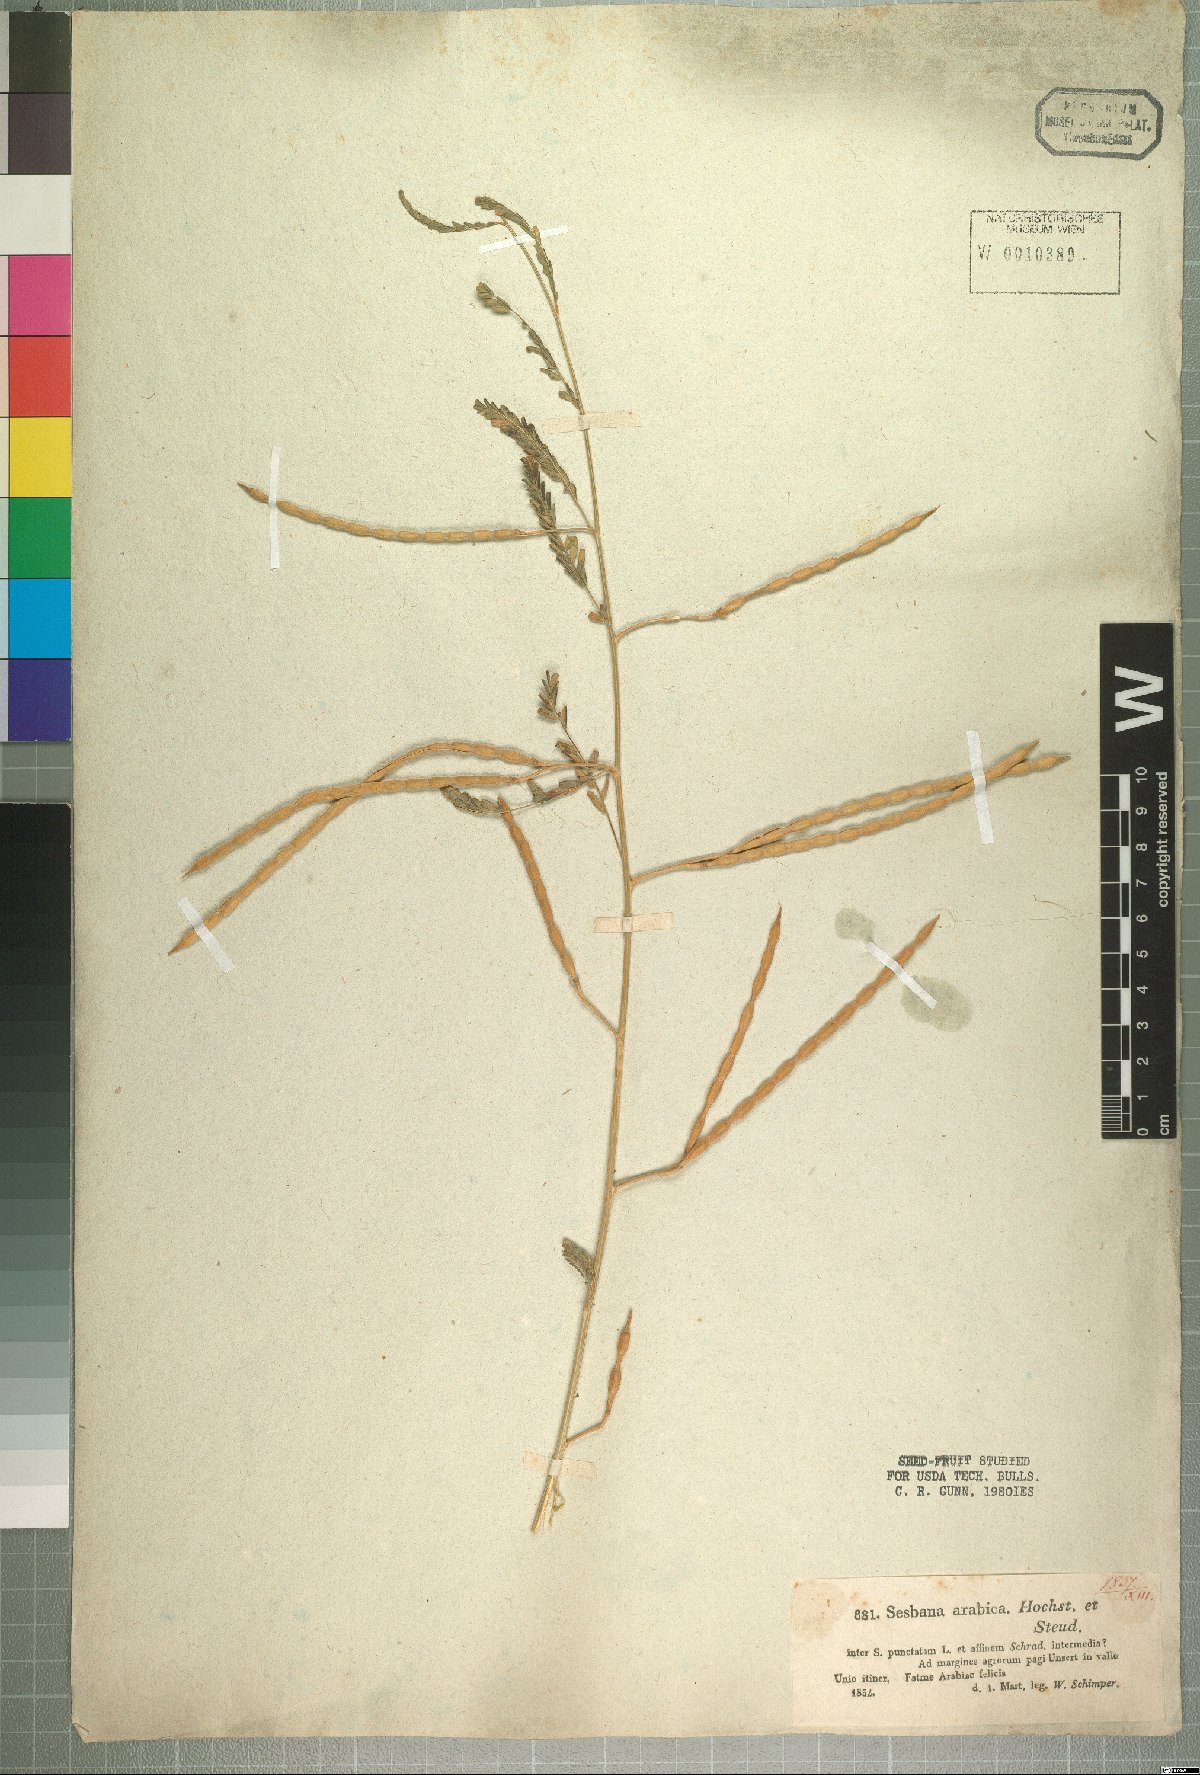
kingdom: Plantae
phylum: Tracheophyta
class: Magnoliopsida
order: Fabales
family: Fabaceae
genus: Sesbania
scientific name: Sesbania leptocarpa
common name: Riverhemp
